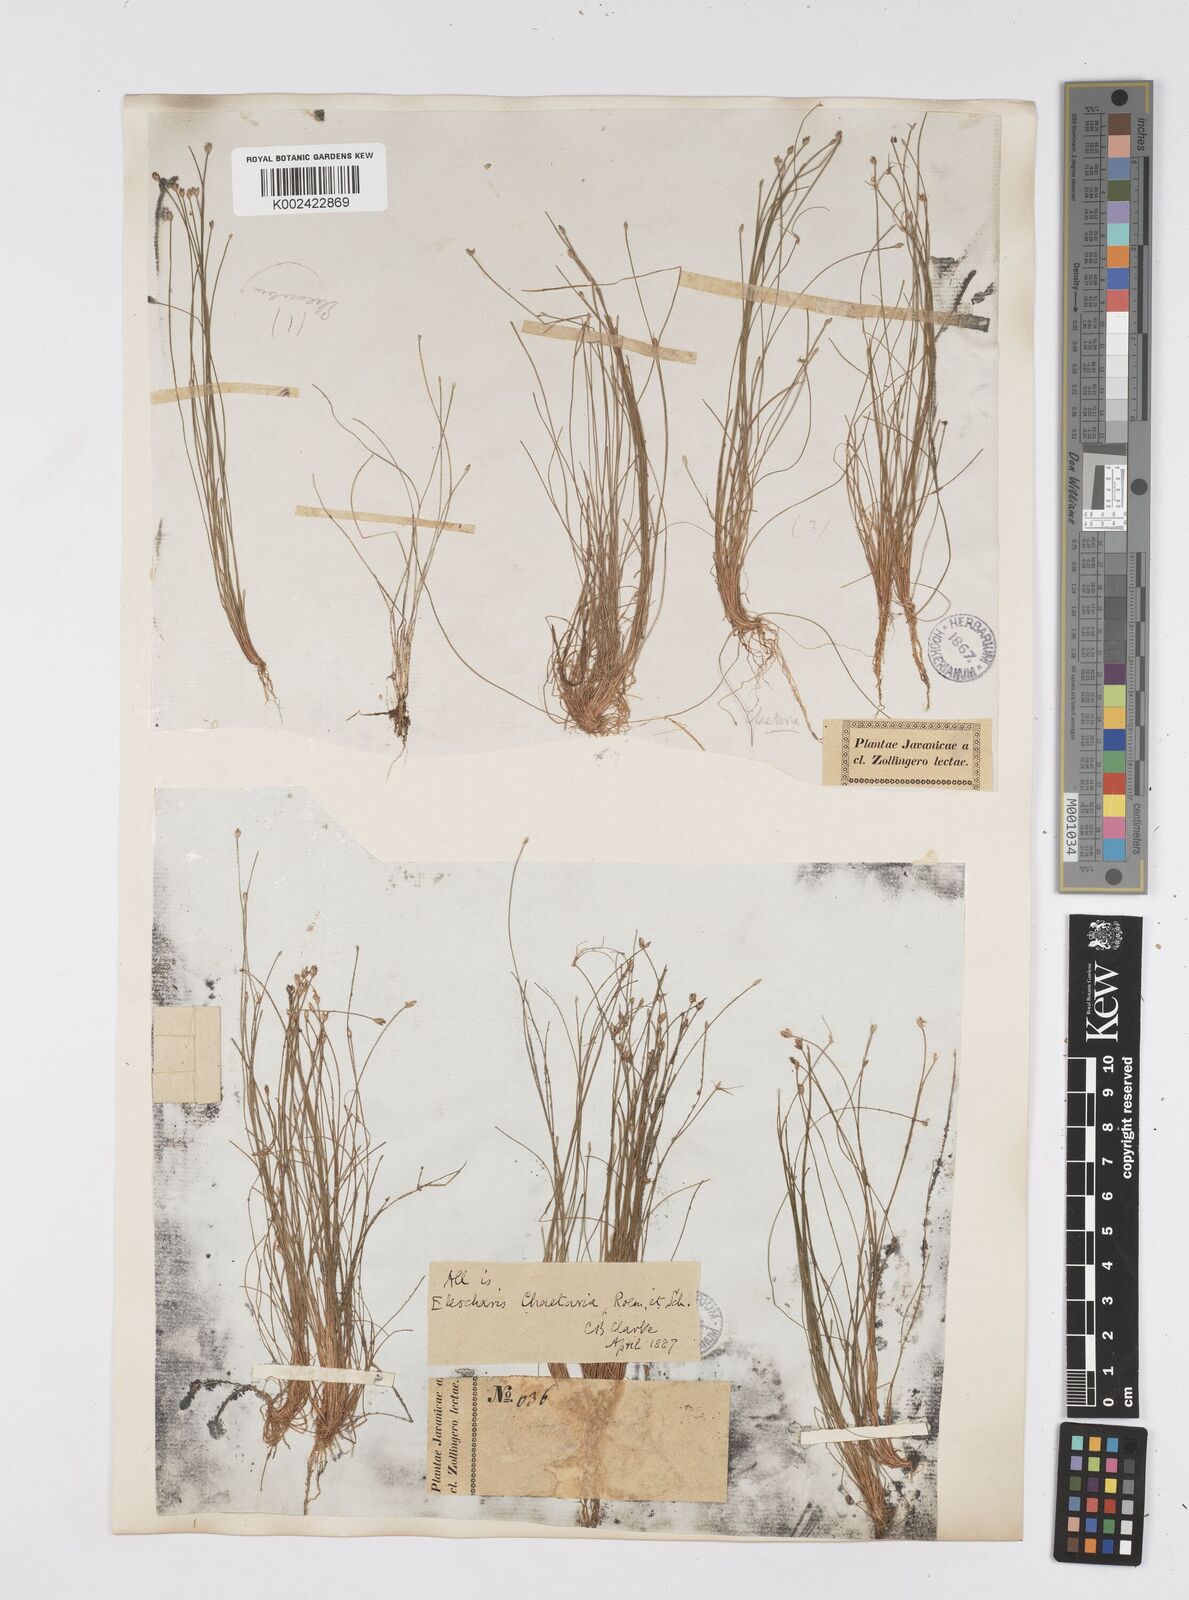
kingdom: Plantae
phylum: Tracheophyta
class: Liliopsida
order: Poales
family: Cyperaceae
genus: Eleocharis
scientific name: Eleocharis retroflexa
